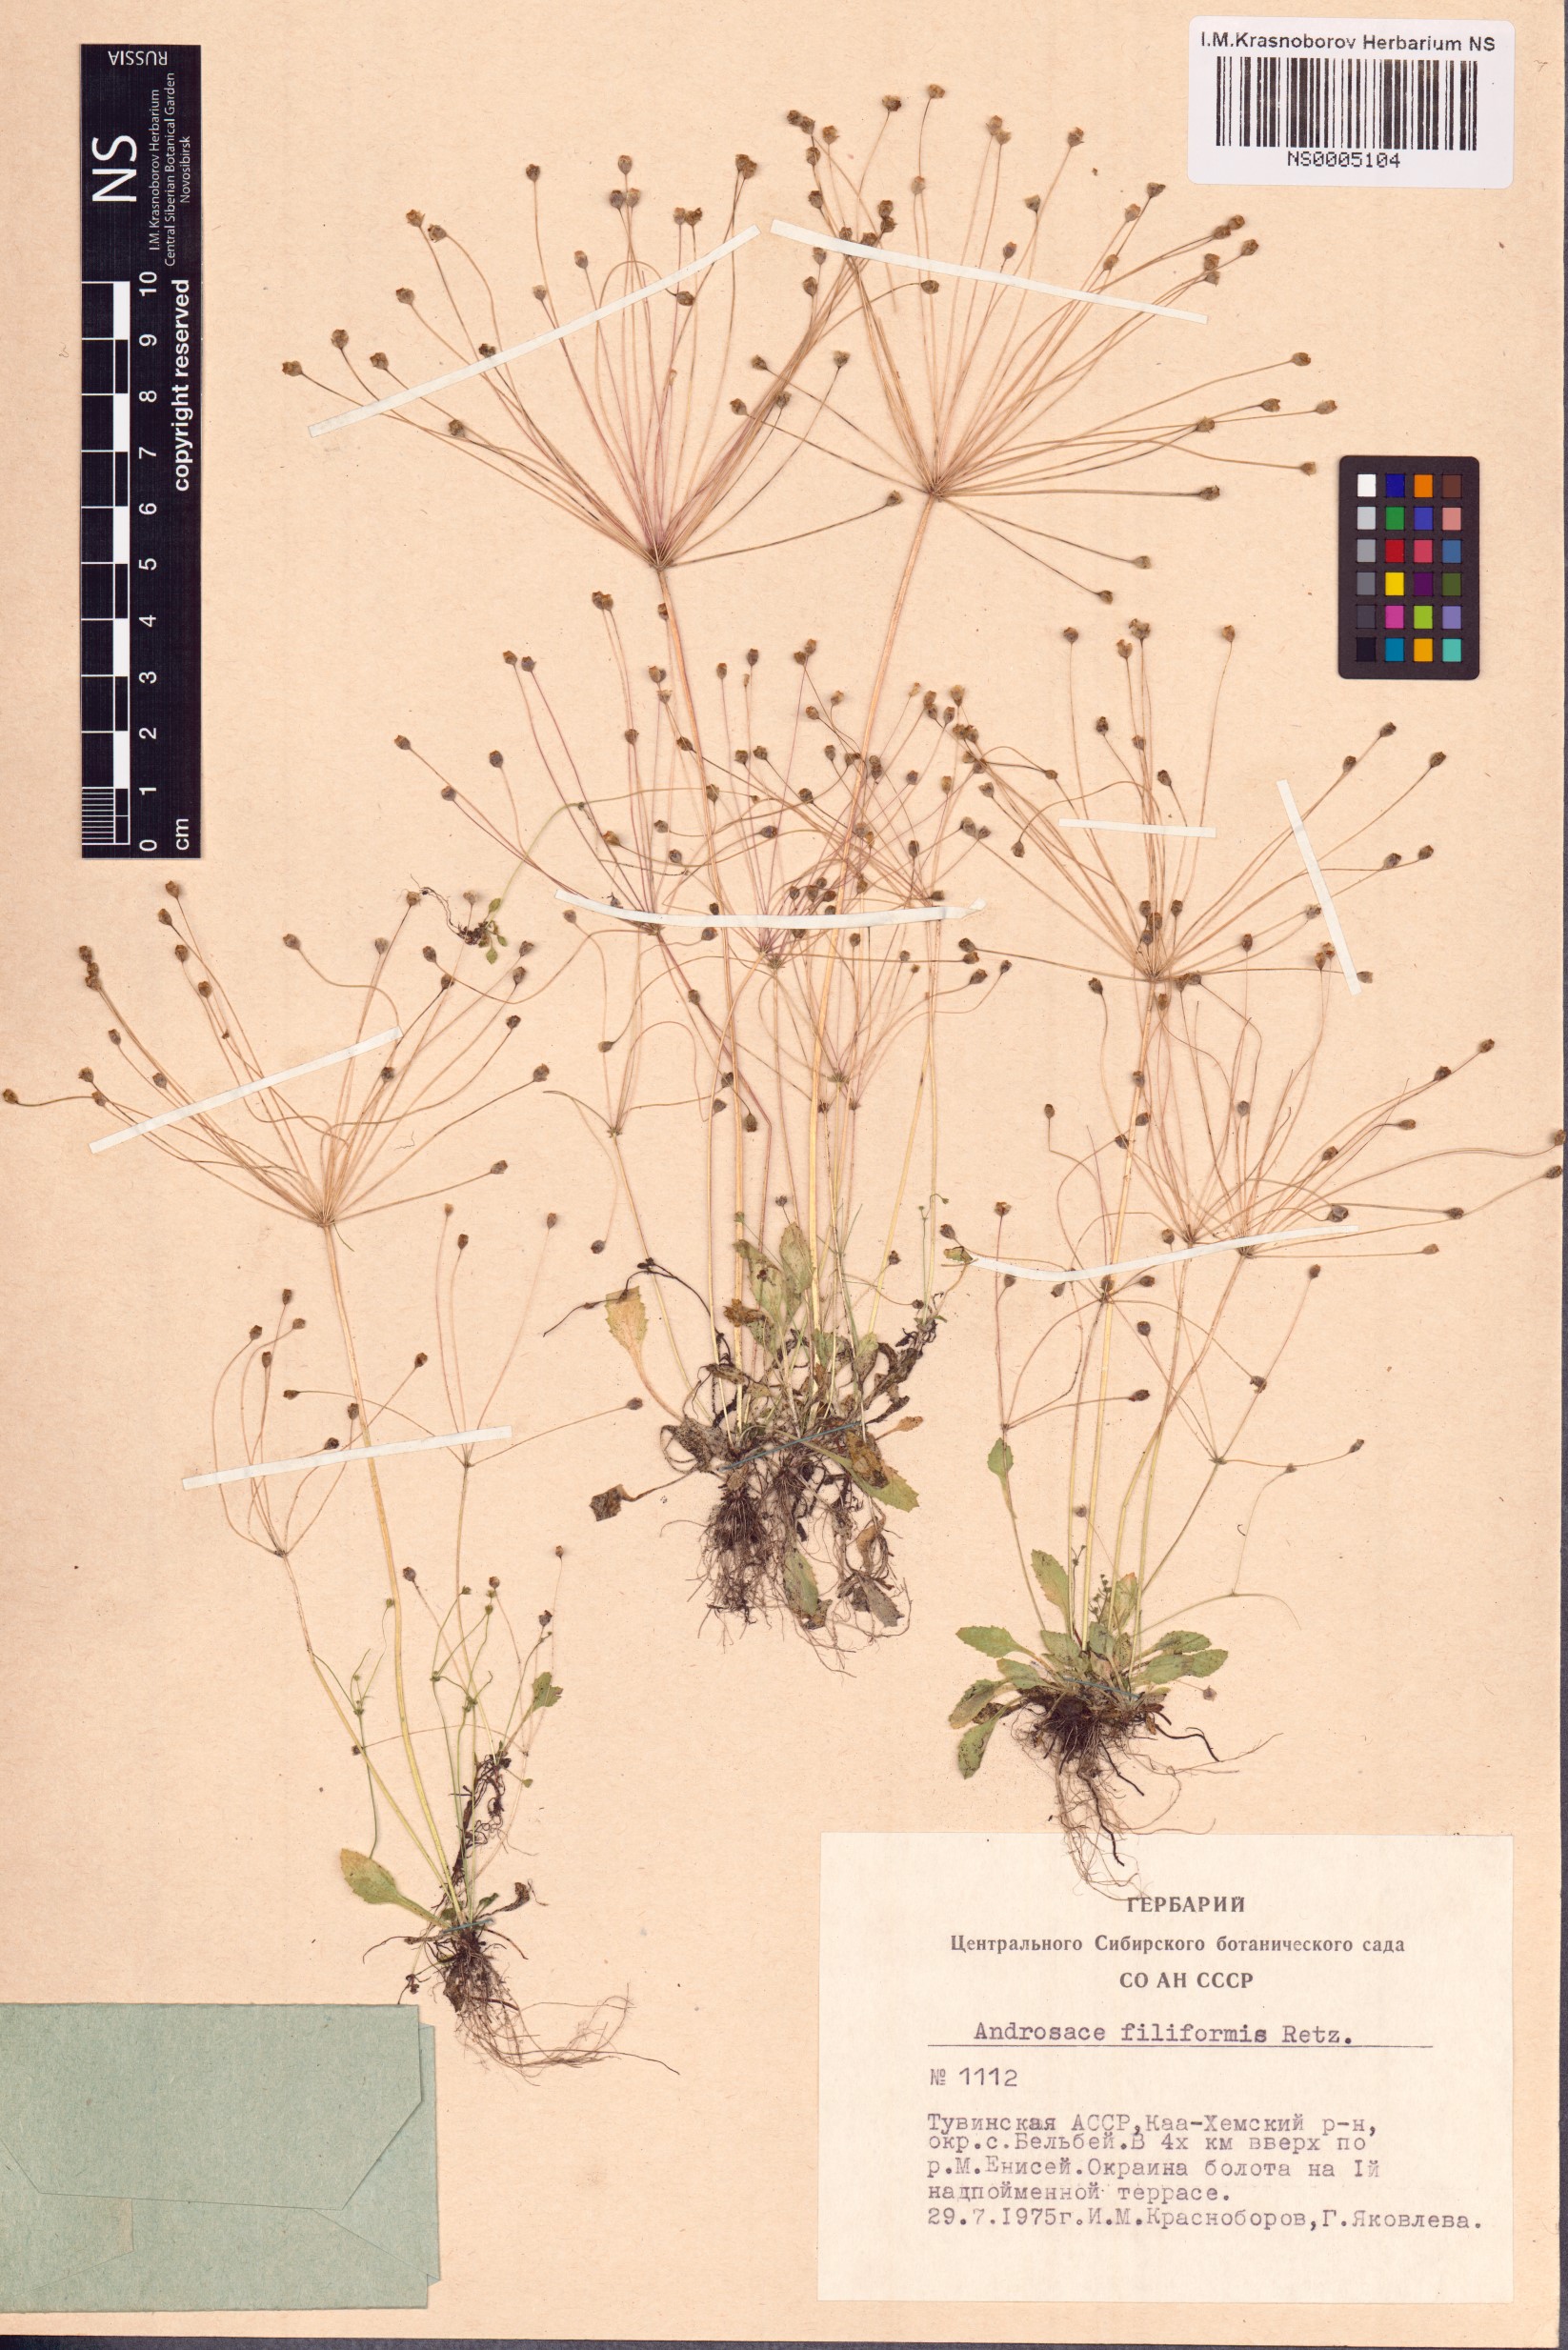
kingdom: Plantae
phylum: Tracheophyta
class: Magnoliopsida
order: Ericales
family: Primulaceae
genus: Androsace
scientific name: Androsace filiformis
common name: Filiform rock jasmine
